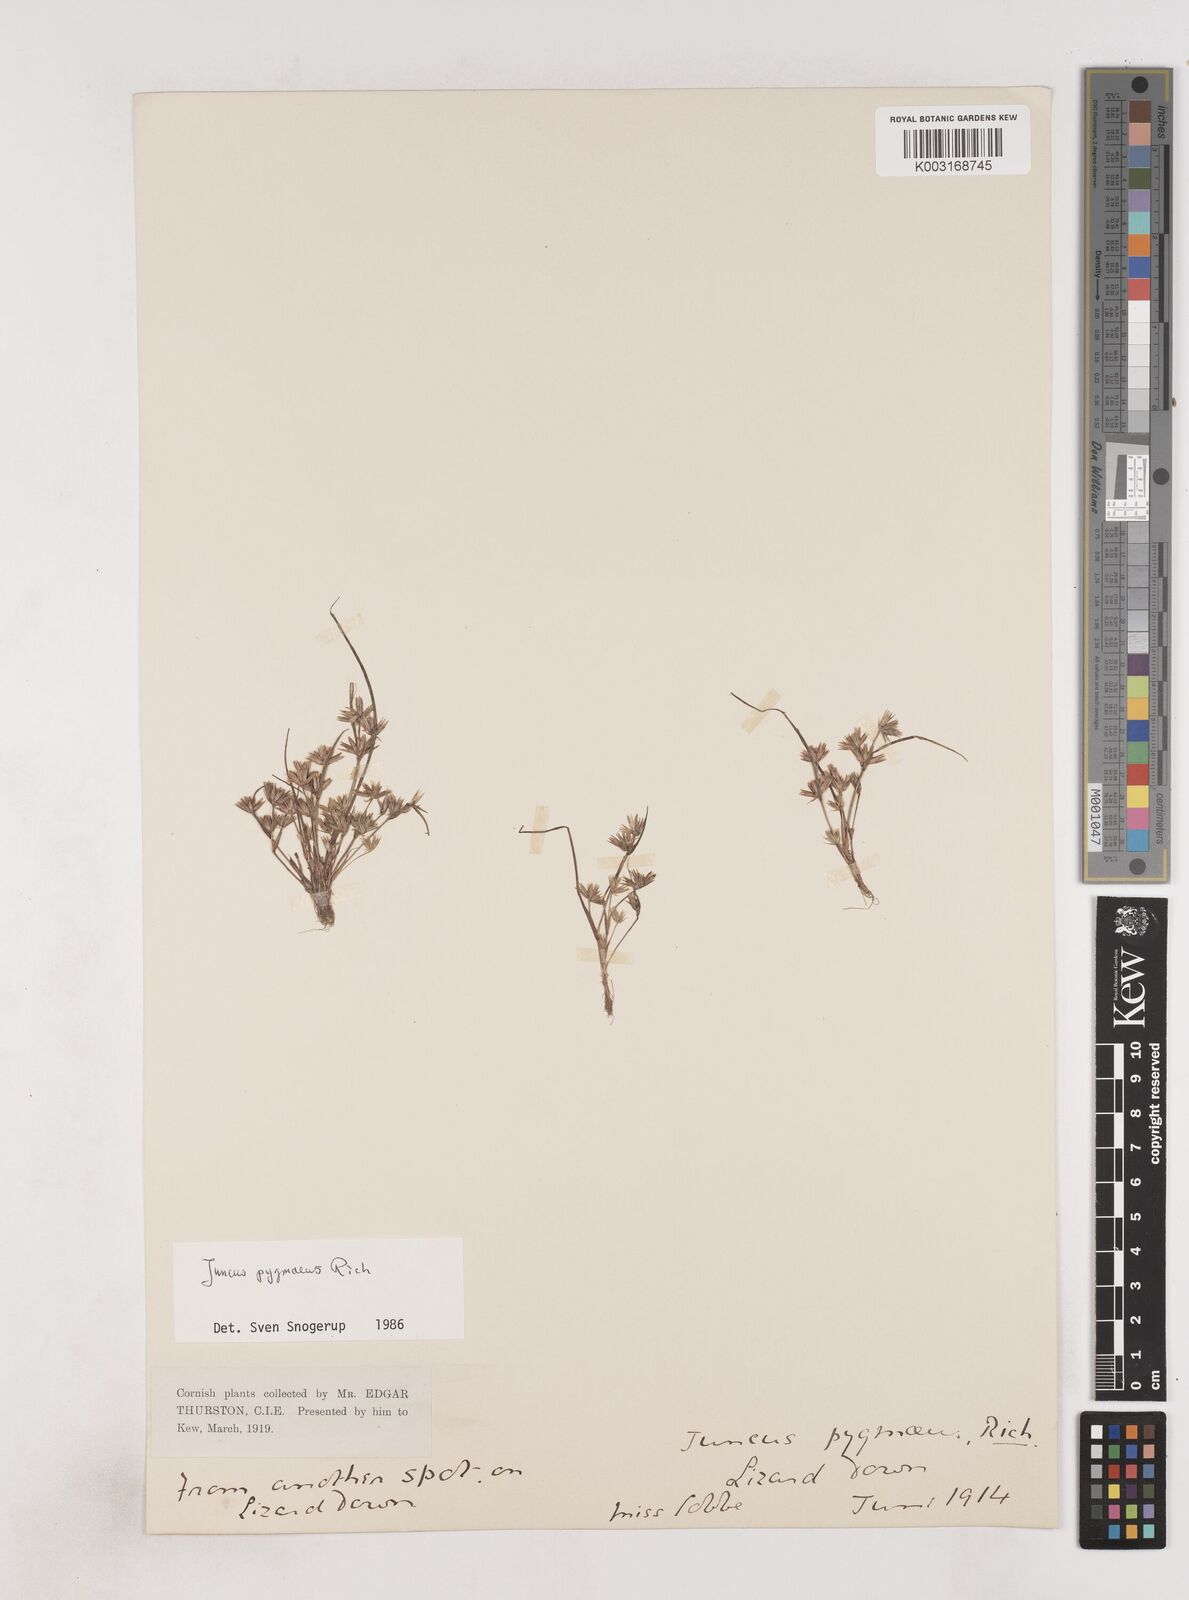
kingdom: Plantae
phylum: Tracheophyta
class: Liliopsida
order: Poales
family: Juncaceae
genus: Juncus
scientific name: Juncus pygmaeus
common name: Pigmy rush
